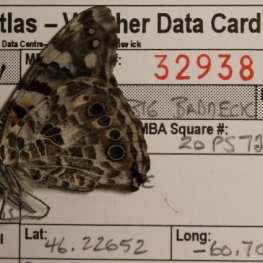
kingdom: Animalia
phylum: Arthropoda
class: Insecta
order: Lepidoptera
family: Nymphalidae
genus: Vanessa
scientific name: Vanessa cardui
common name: Painted Lady
